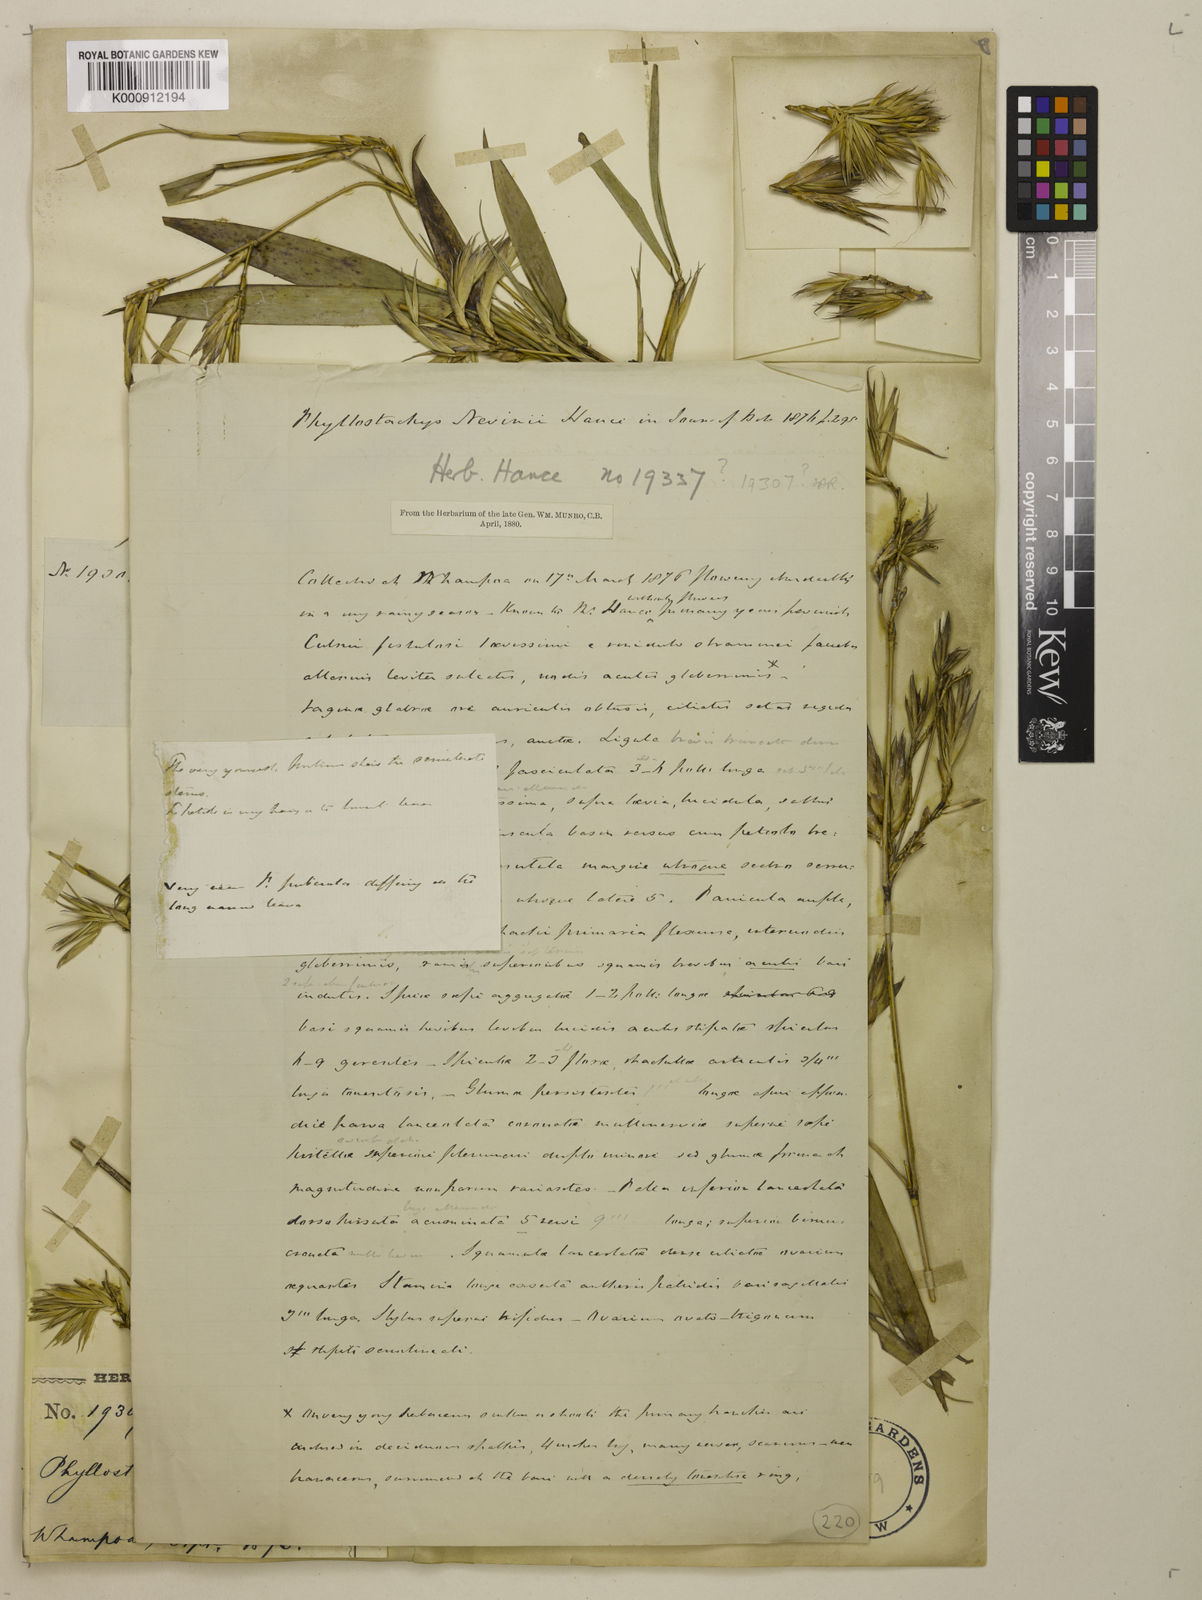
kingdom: Plantae
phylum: Tracheophyta
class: Liliopsida
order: Poales
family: Poaceae
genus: Phyllostachys
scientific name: Phyllostachys nigra
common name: Black bamboo
